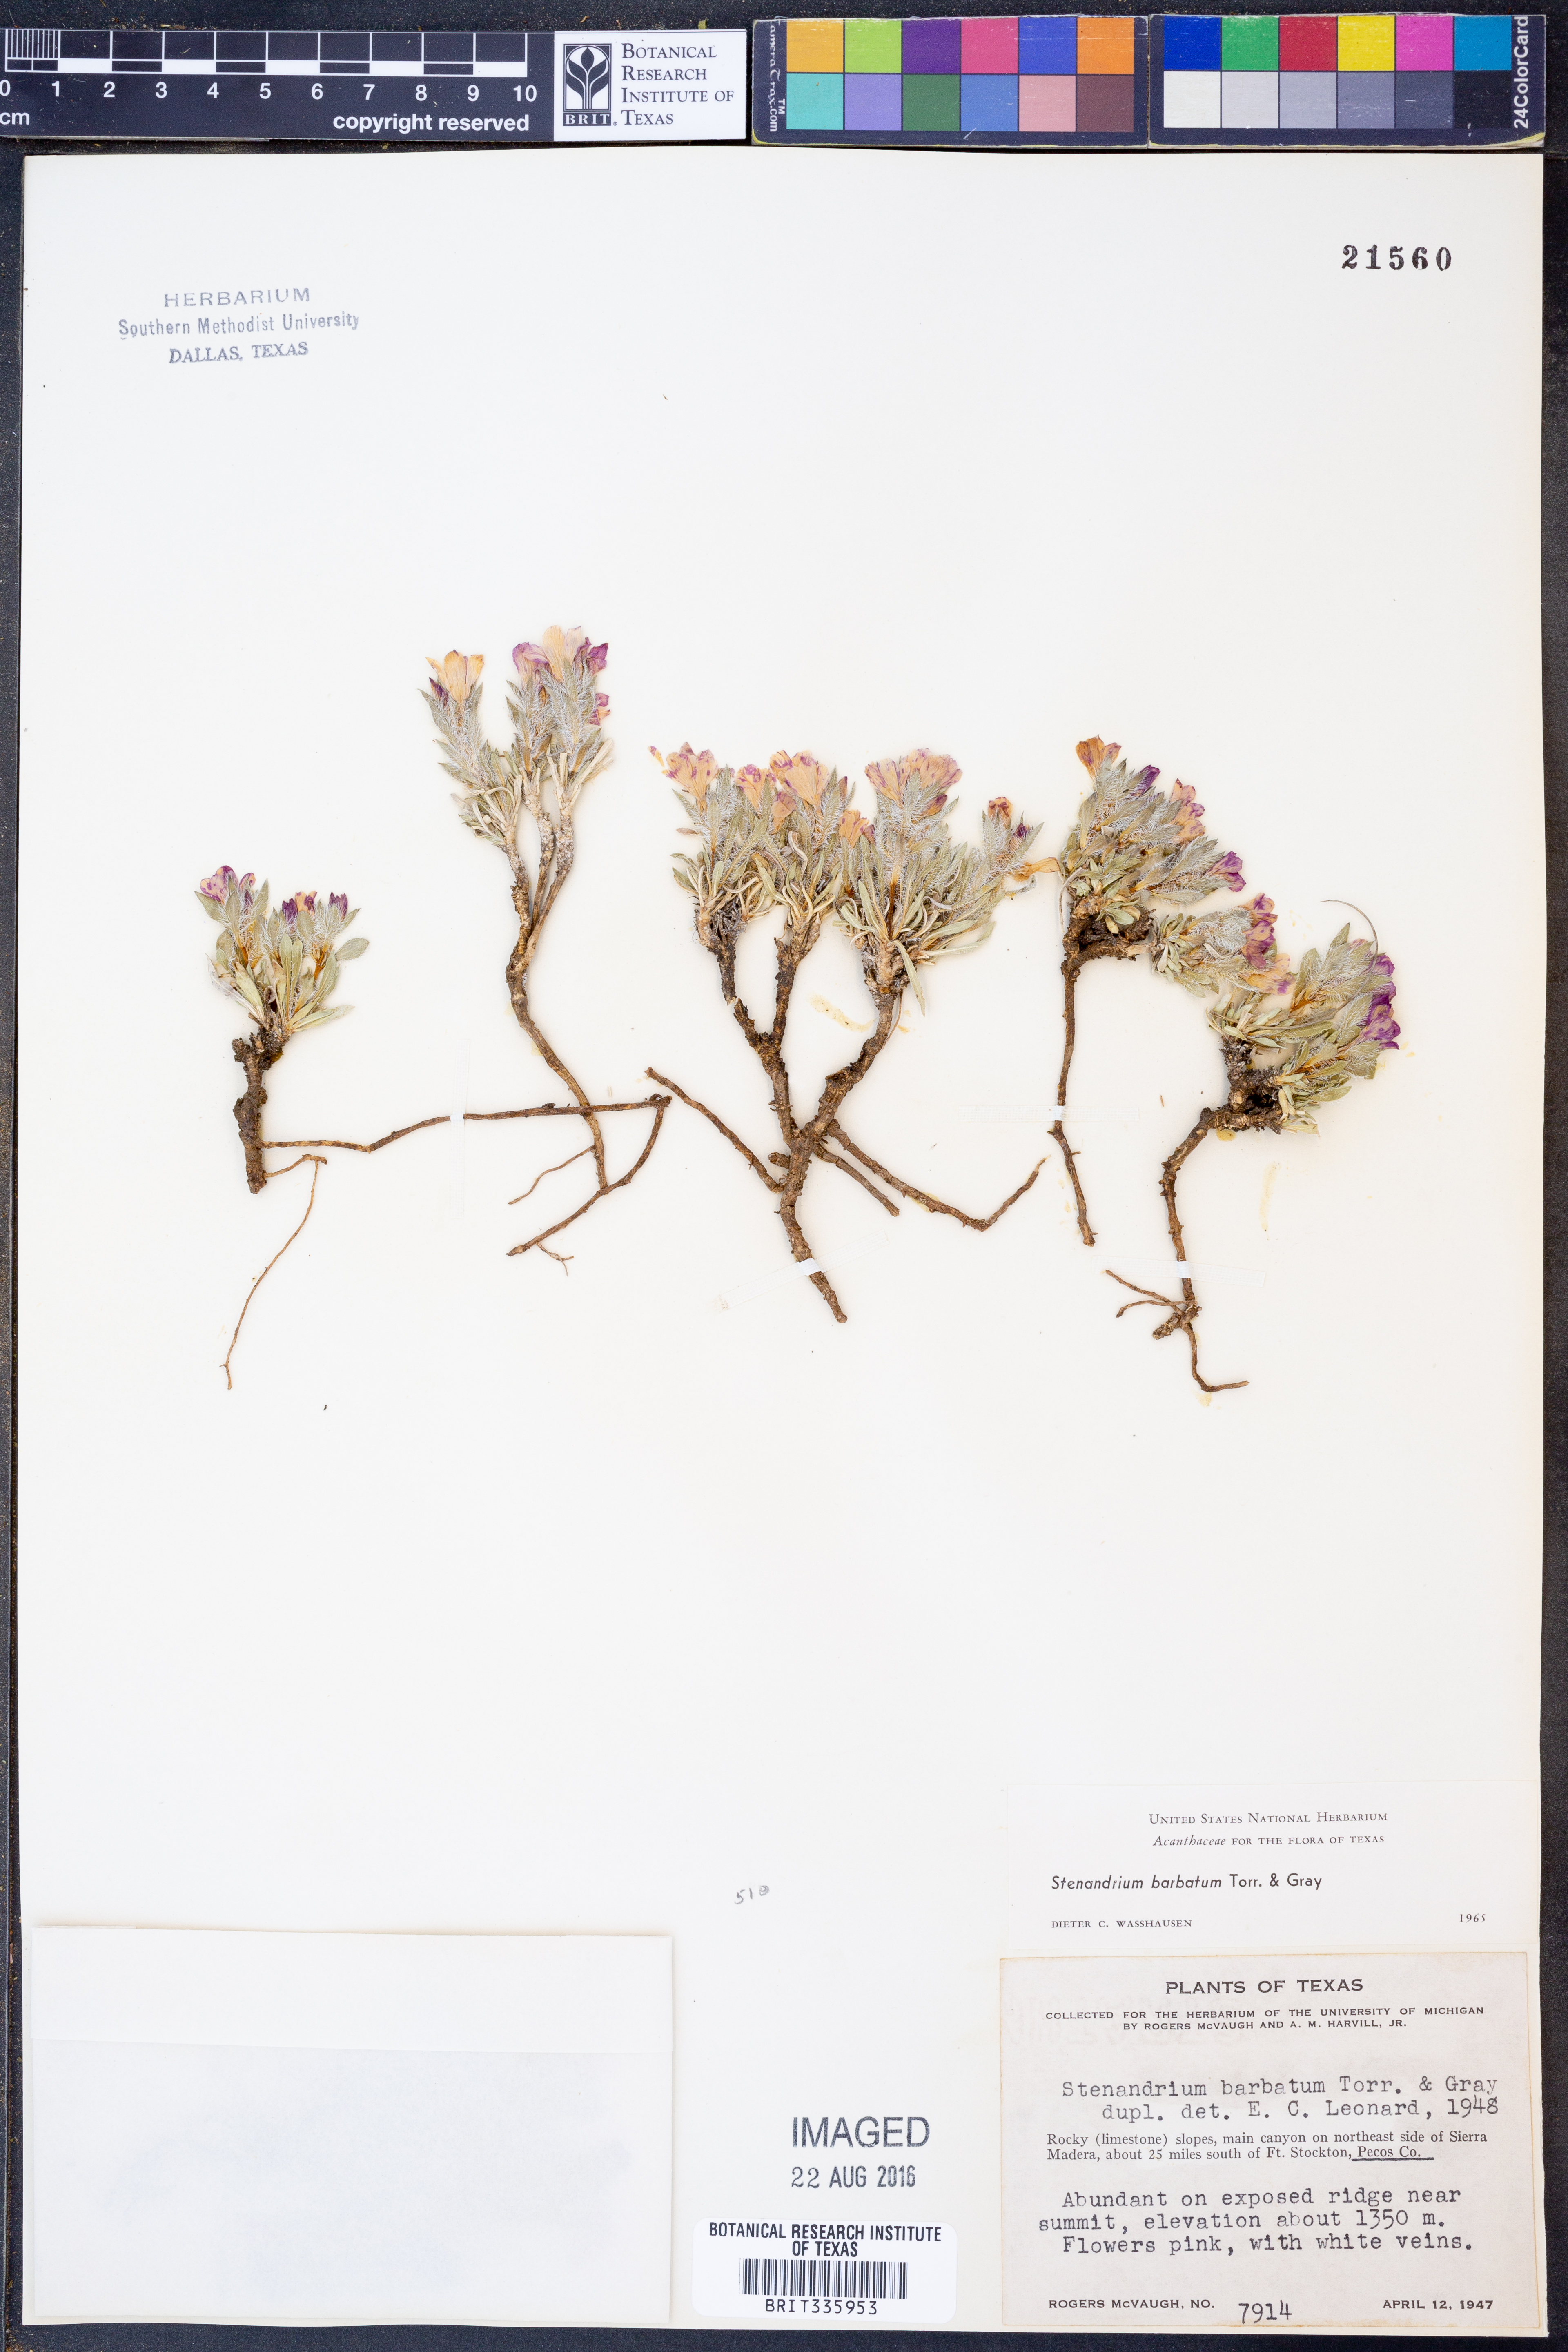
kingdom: Plantae
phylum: Tracheophyta
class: Magnoliopsida
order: Lamiales
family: Acanthaceae
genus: Stenandrium
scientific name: Stenandrium barbatum
